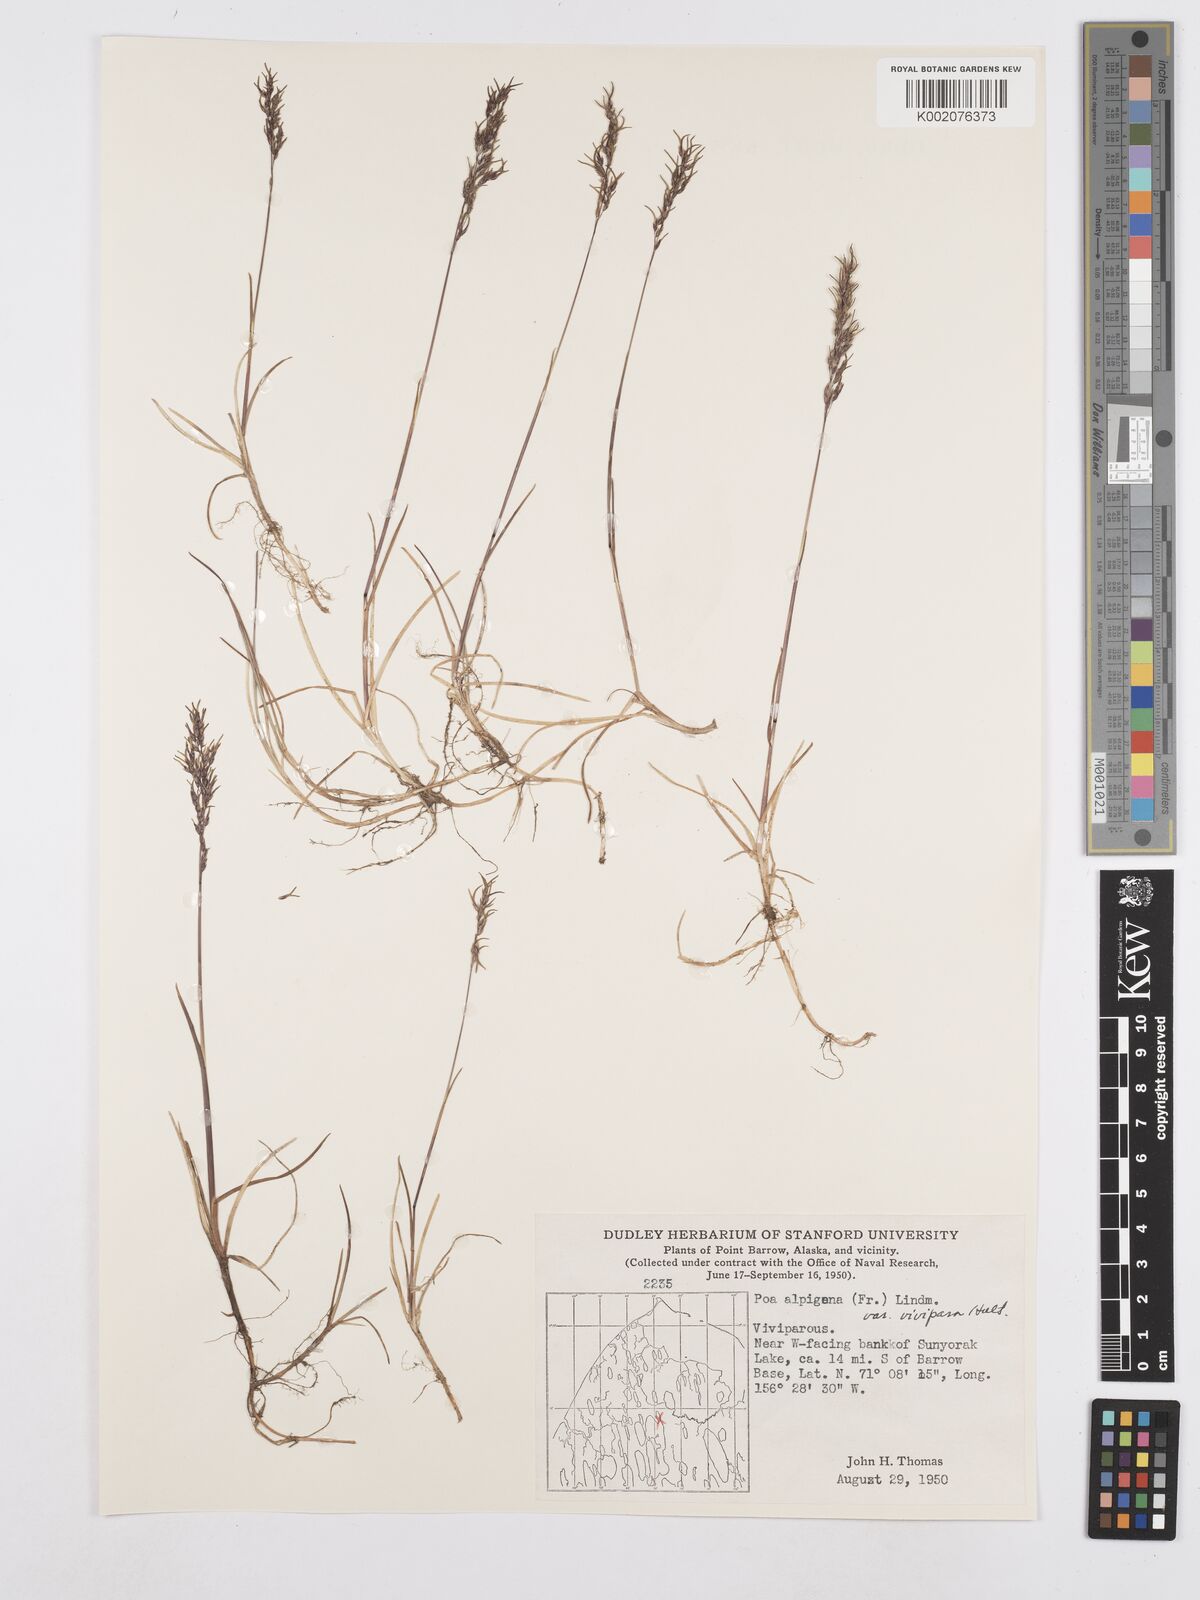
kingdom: Plantae
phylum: Tracheophyta
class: Liliopsida
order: Poales
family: Poaceae
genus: Poa
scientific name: Poa alpigena
